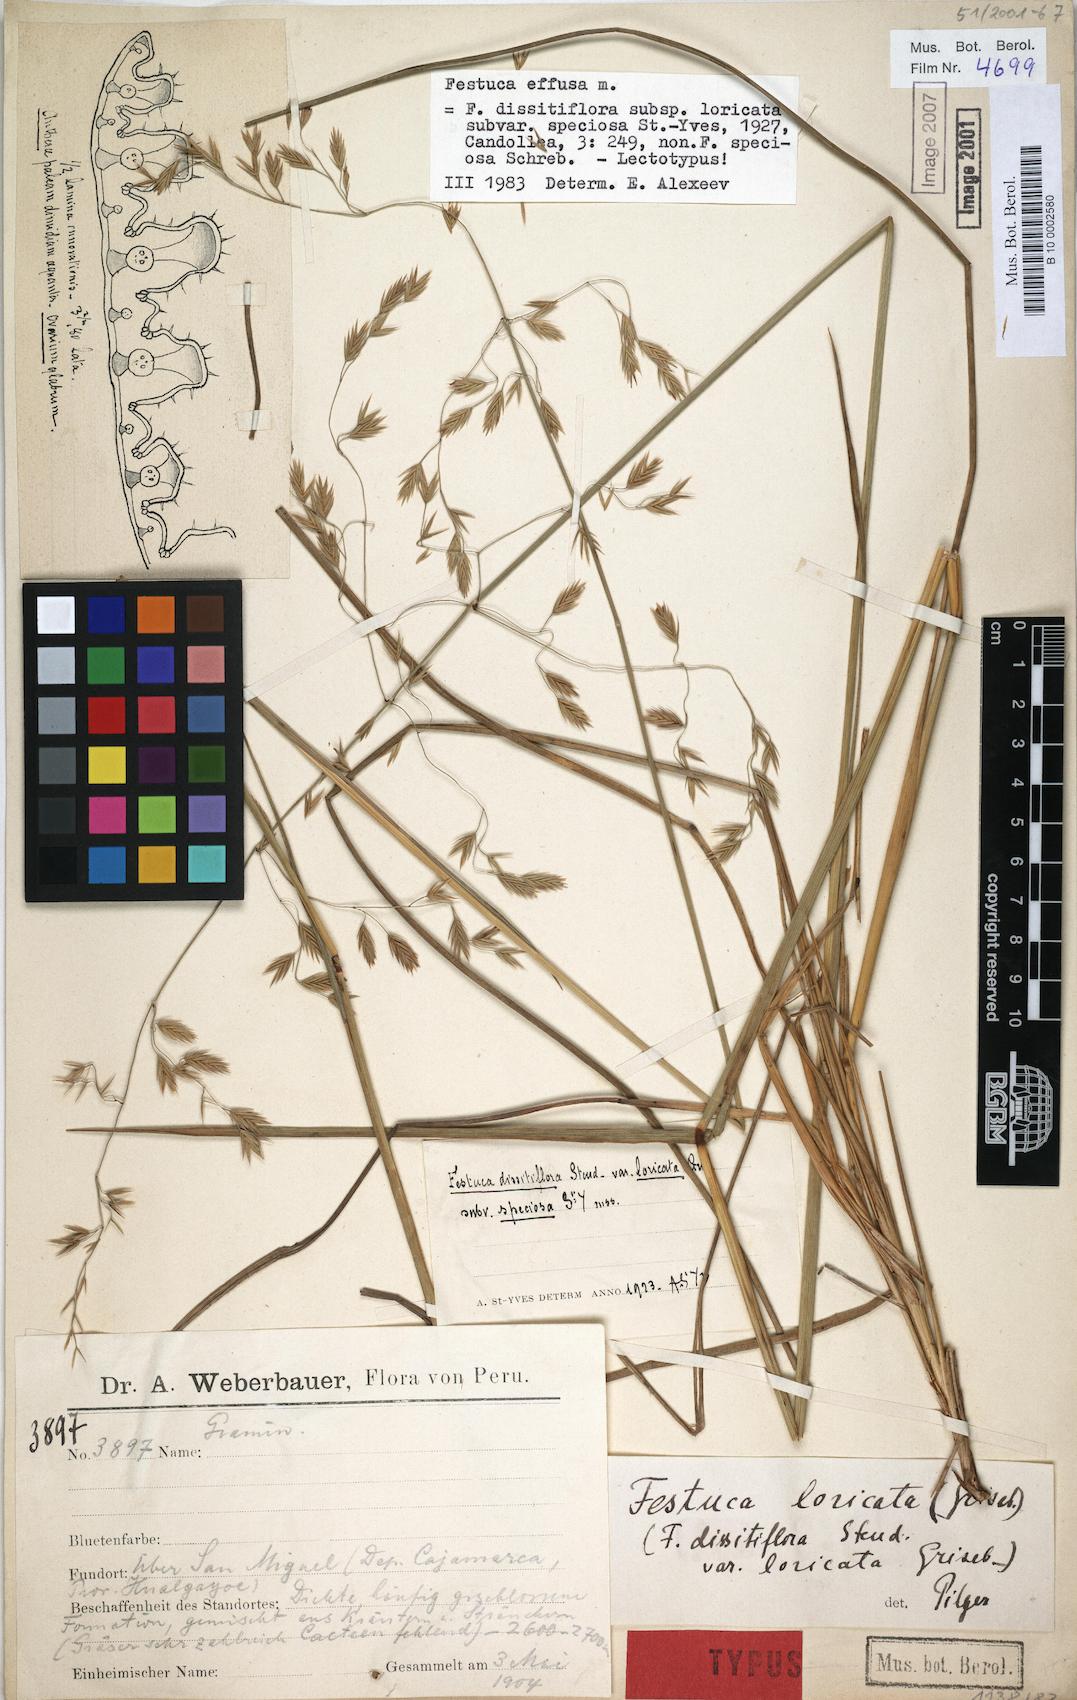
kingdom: Plantae
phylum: Tracheophyta
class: Liliopsida
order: Poales
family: Poaceae
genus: Festuca
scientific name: Festuca dissitiflora
